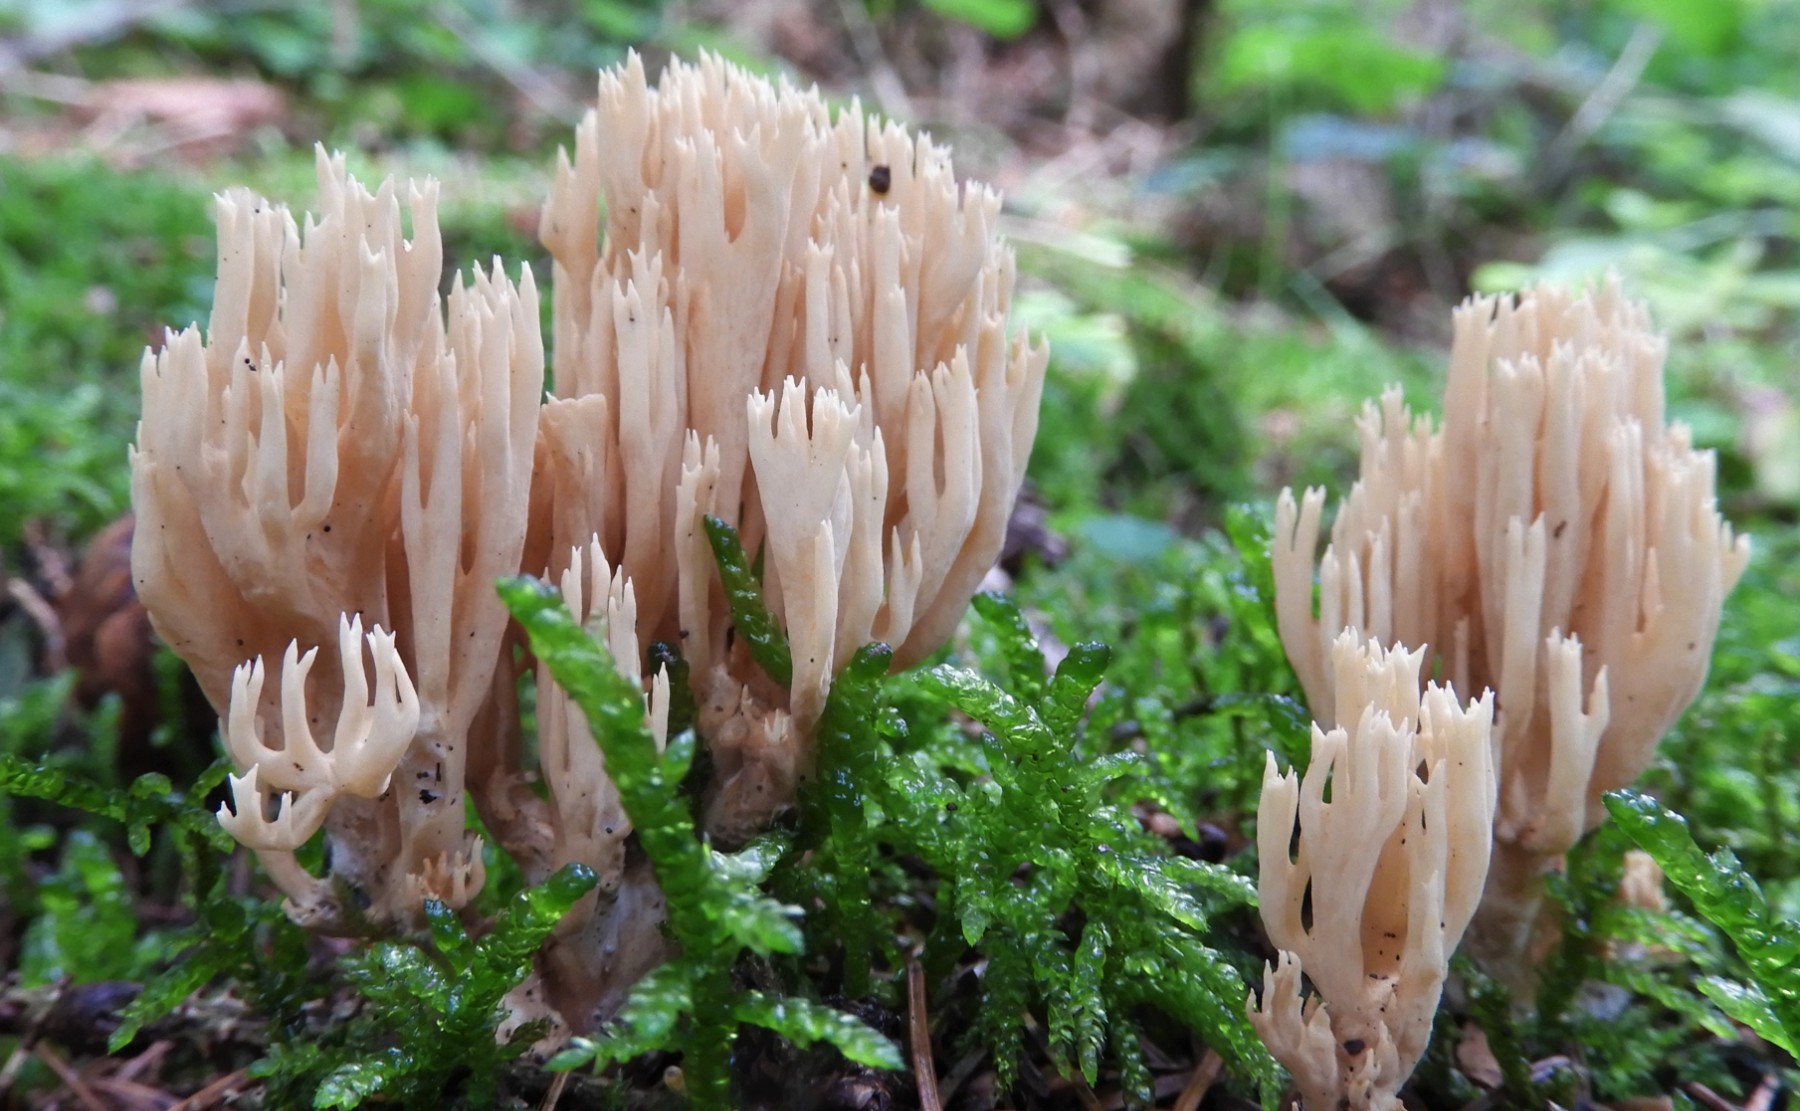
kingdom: Fungi
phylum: Basidiomycota
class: Agaricomycetes
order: Gomphales
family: Gomphaceae
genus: Phaeoclavulina
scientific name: Phaeoclavulina eumorpha
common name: gran-koralsvamp
